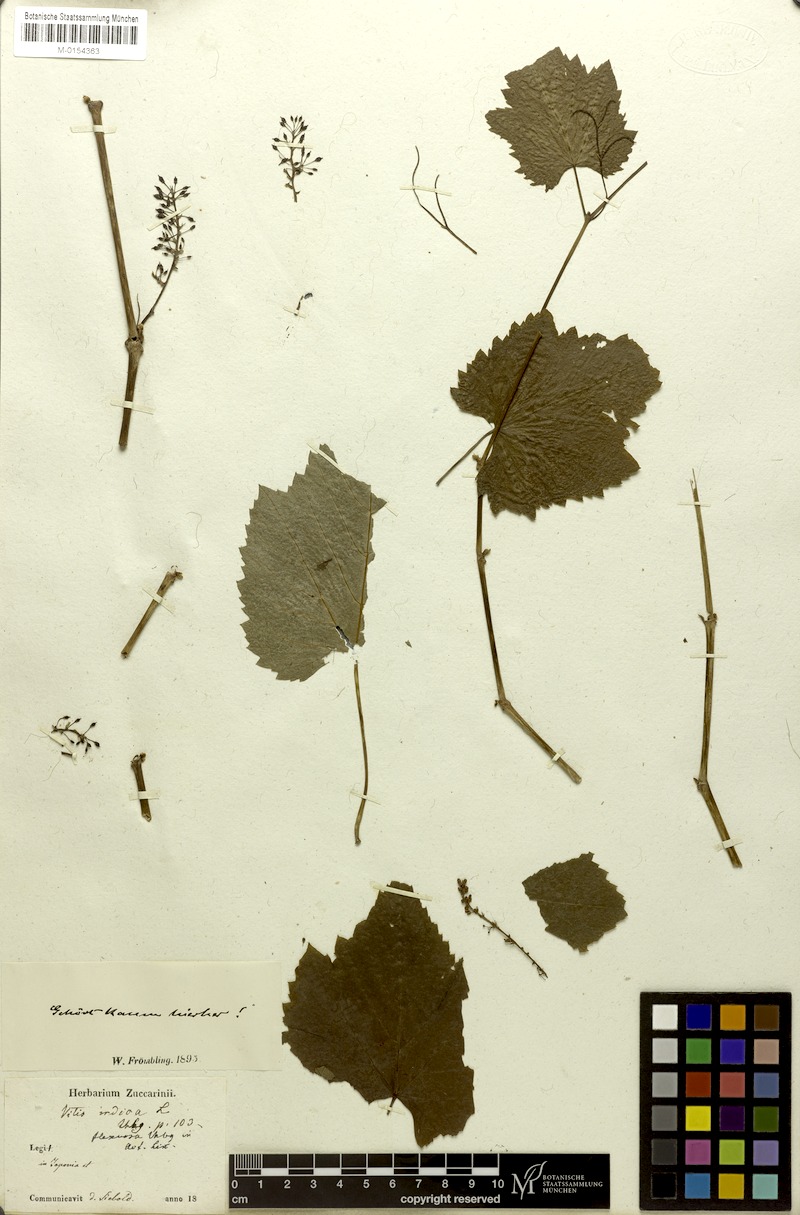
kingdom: Plantae
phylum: Tracheophyta
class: Magnoliopsida
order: Vitales
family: Vitaceae
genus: Ampelocissus
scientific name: Ampelocissus indica
